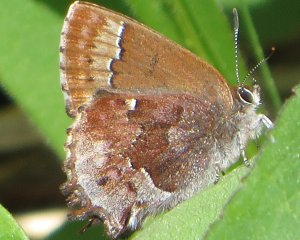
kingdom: Animalia
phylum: Arthropoda
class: Insecta
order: Lepidoptera
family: Lycaenidae
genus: Thecla
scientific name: Thecla irus
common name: Frosted Elfin
